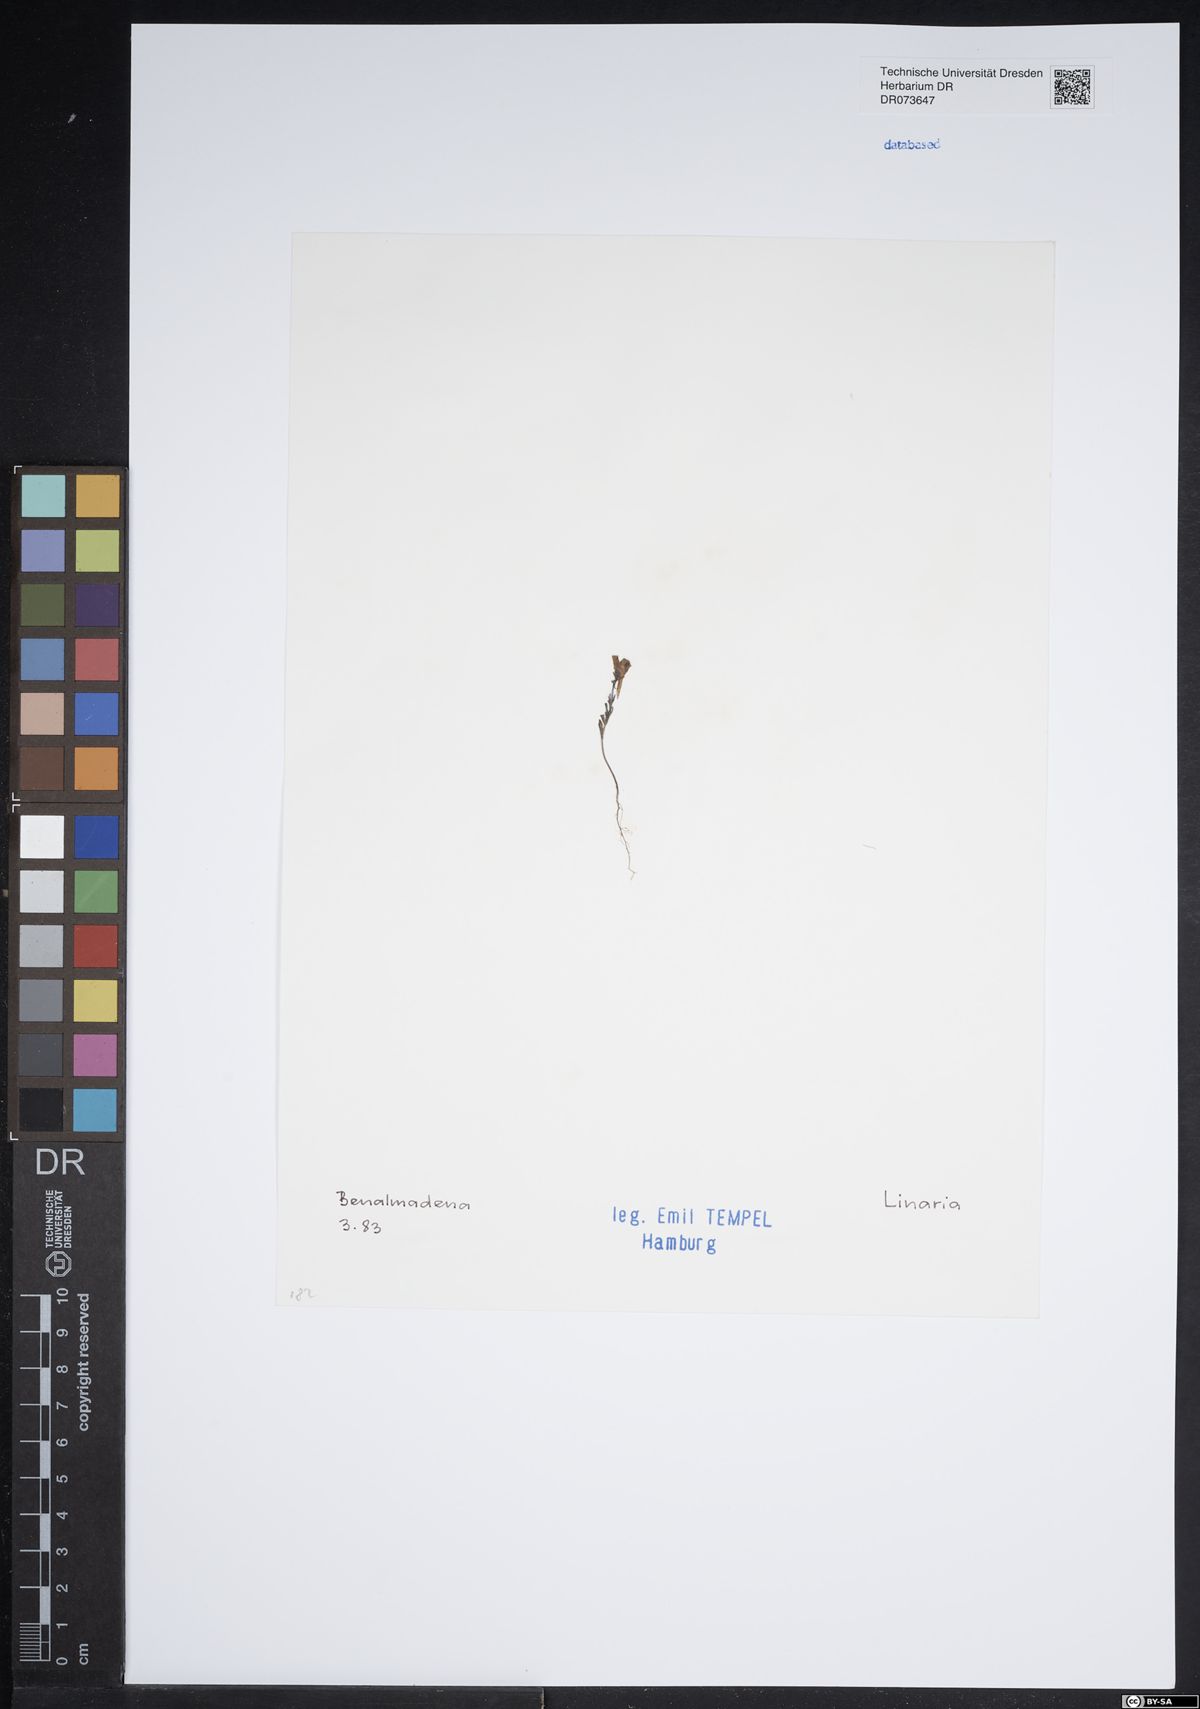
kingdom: Plantae
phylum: Tracheophyta
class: Magnoliopsida
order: Lamiales
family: Plantaginaceae
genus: Linaria
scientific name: Linaria
